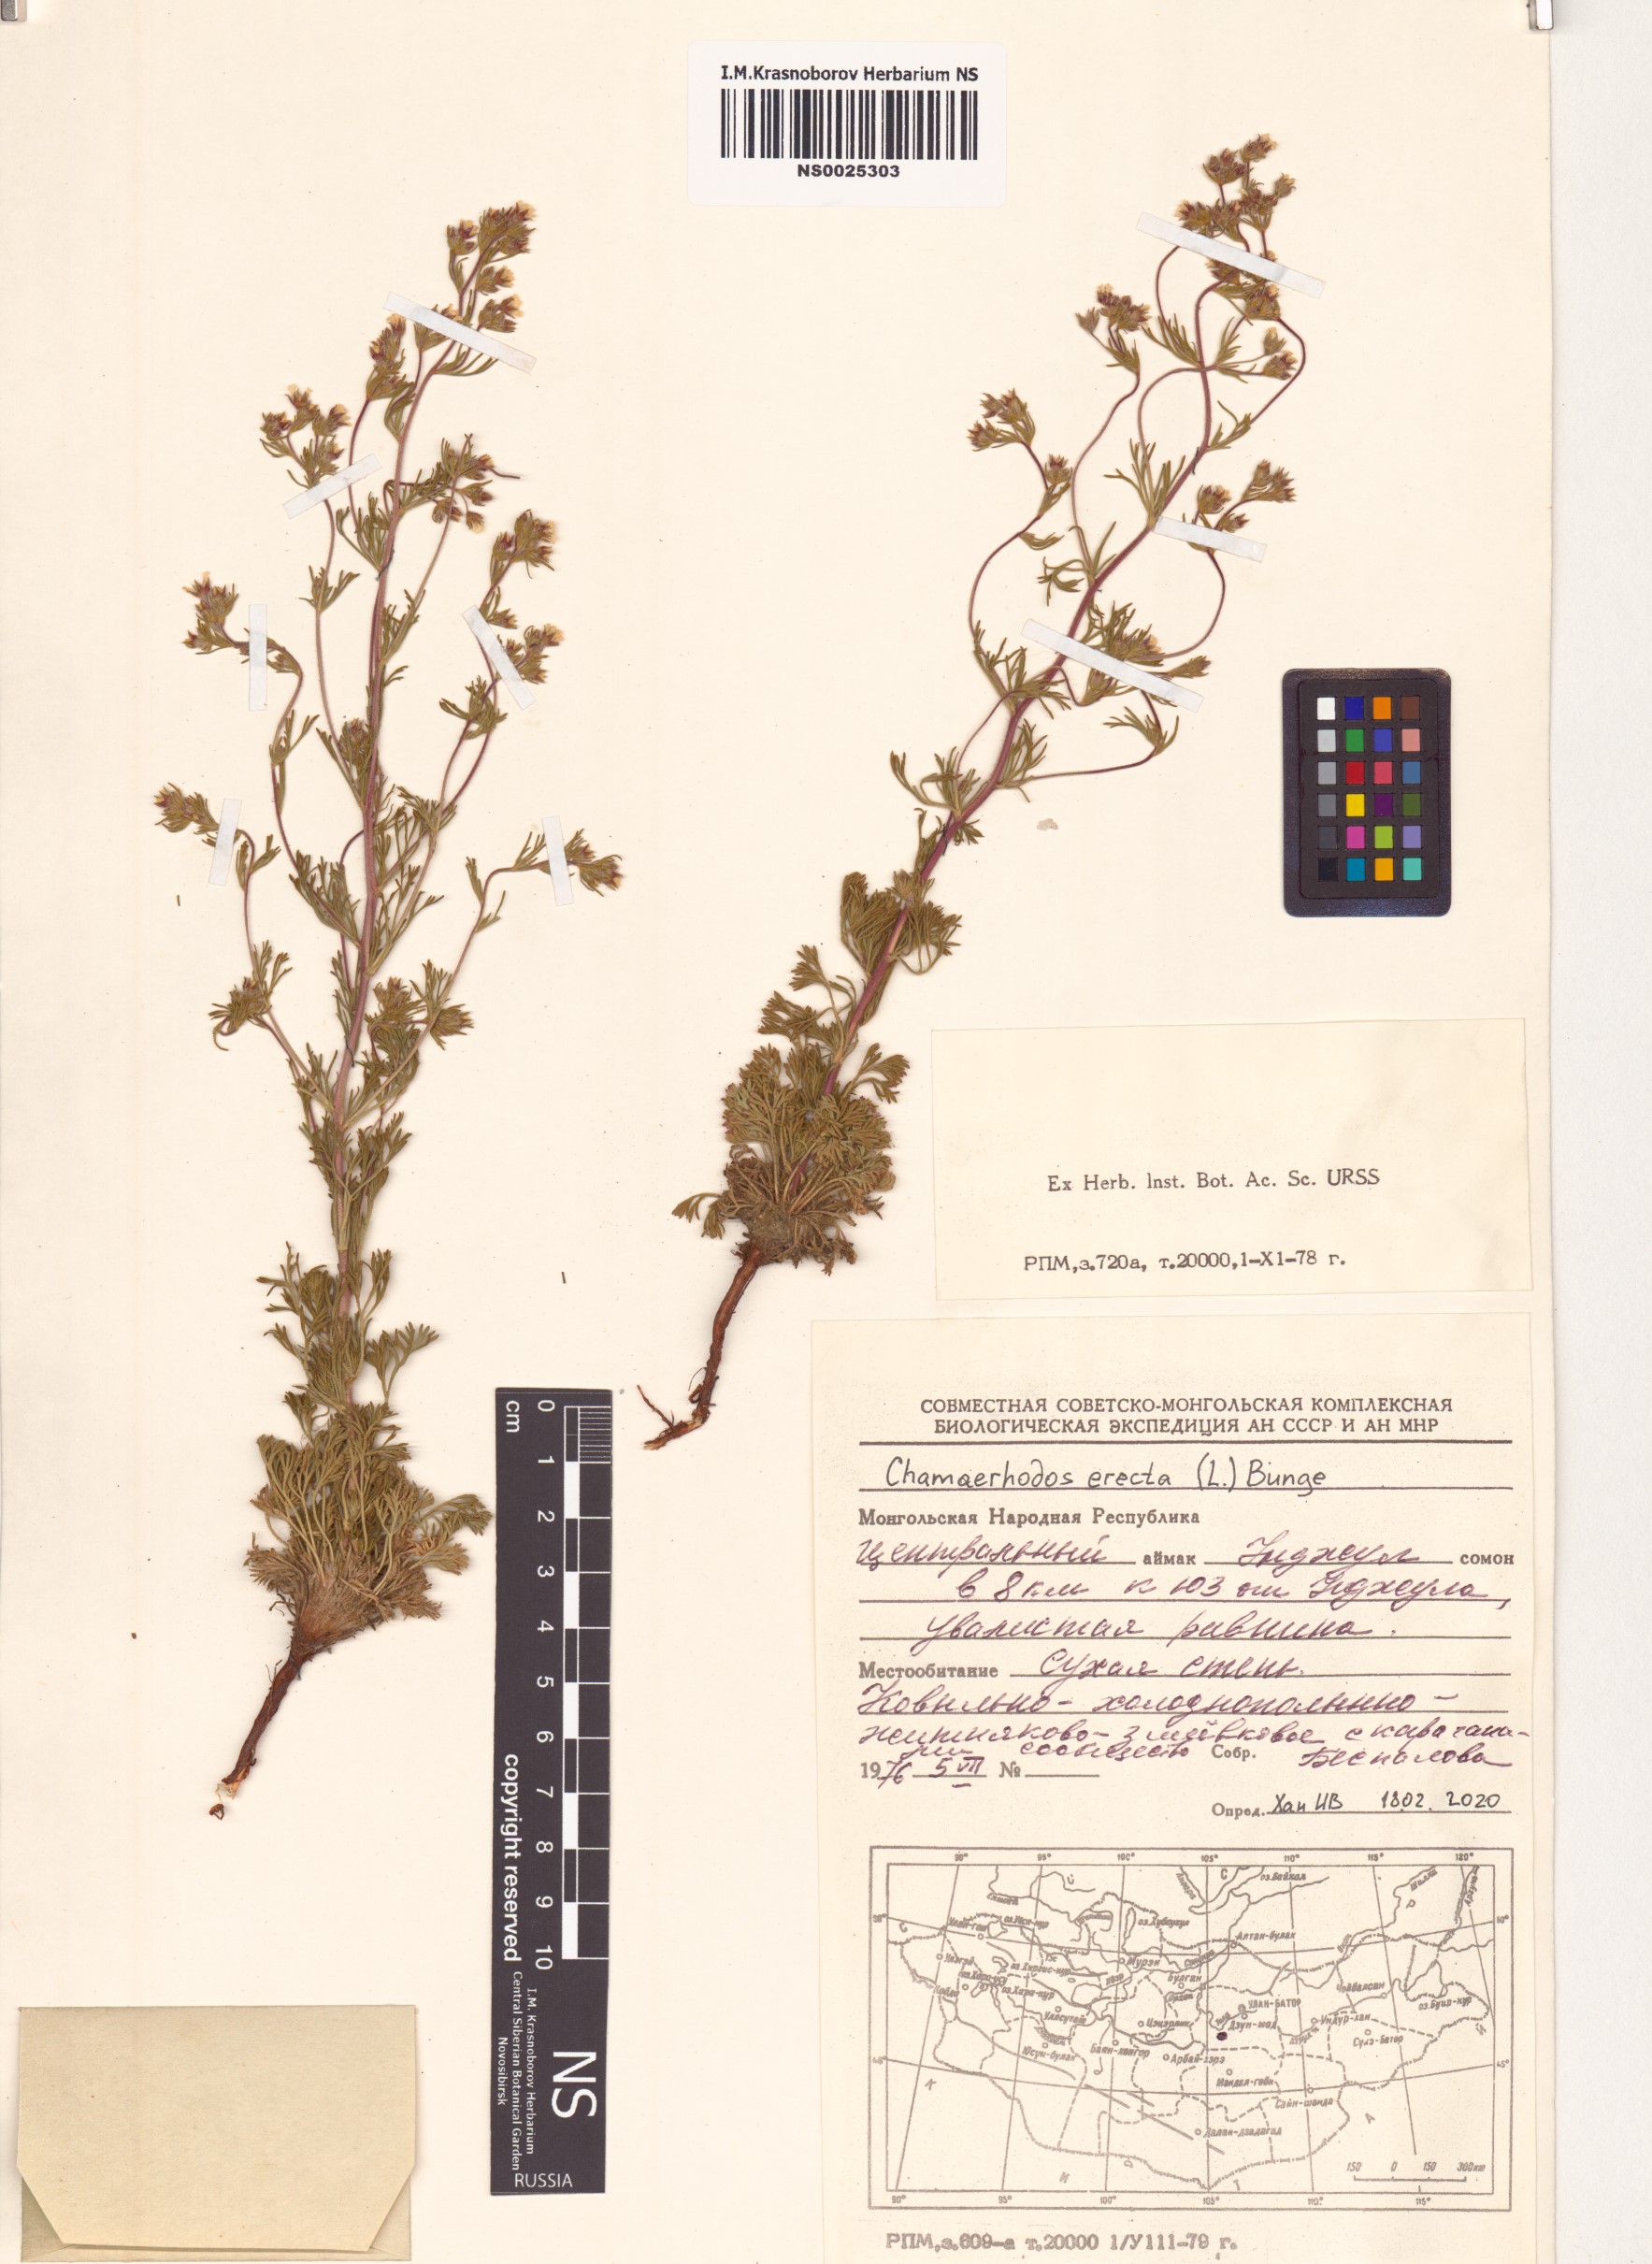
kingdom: Plantae
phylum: Tracheophyta
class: Magnoliopsida
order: Rosales
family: Rosaceae
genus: Chamaerhodos
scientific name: Chamaerhodos erecta
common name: American chamaerhodos
